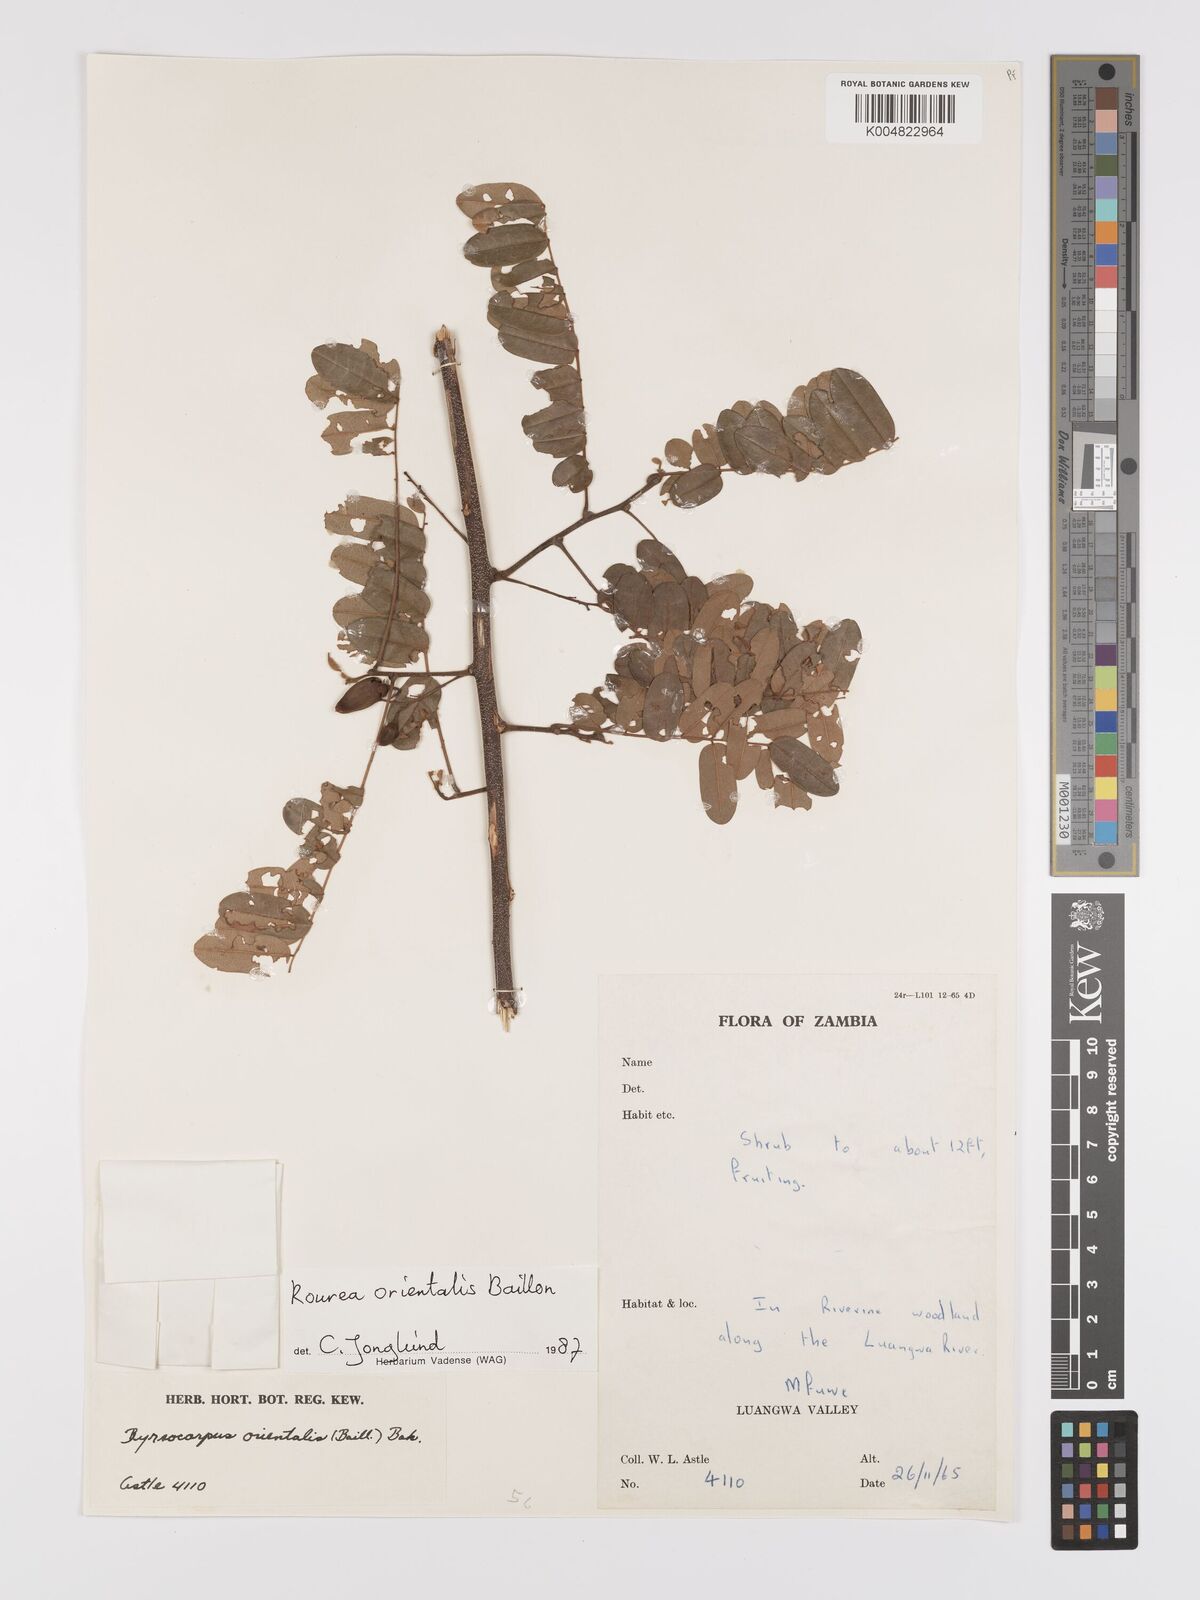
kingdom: Plantae
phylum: Tracheophyta
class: Magnoliopsida
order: Oxalidales
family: Connaraceae
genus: Rourea
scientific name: Rourea orientalis
